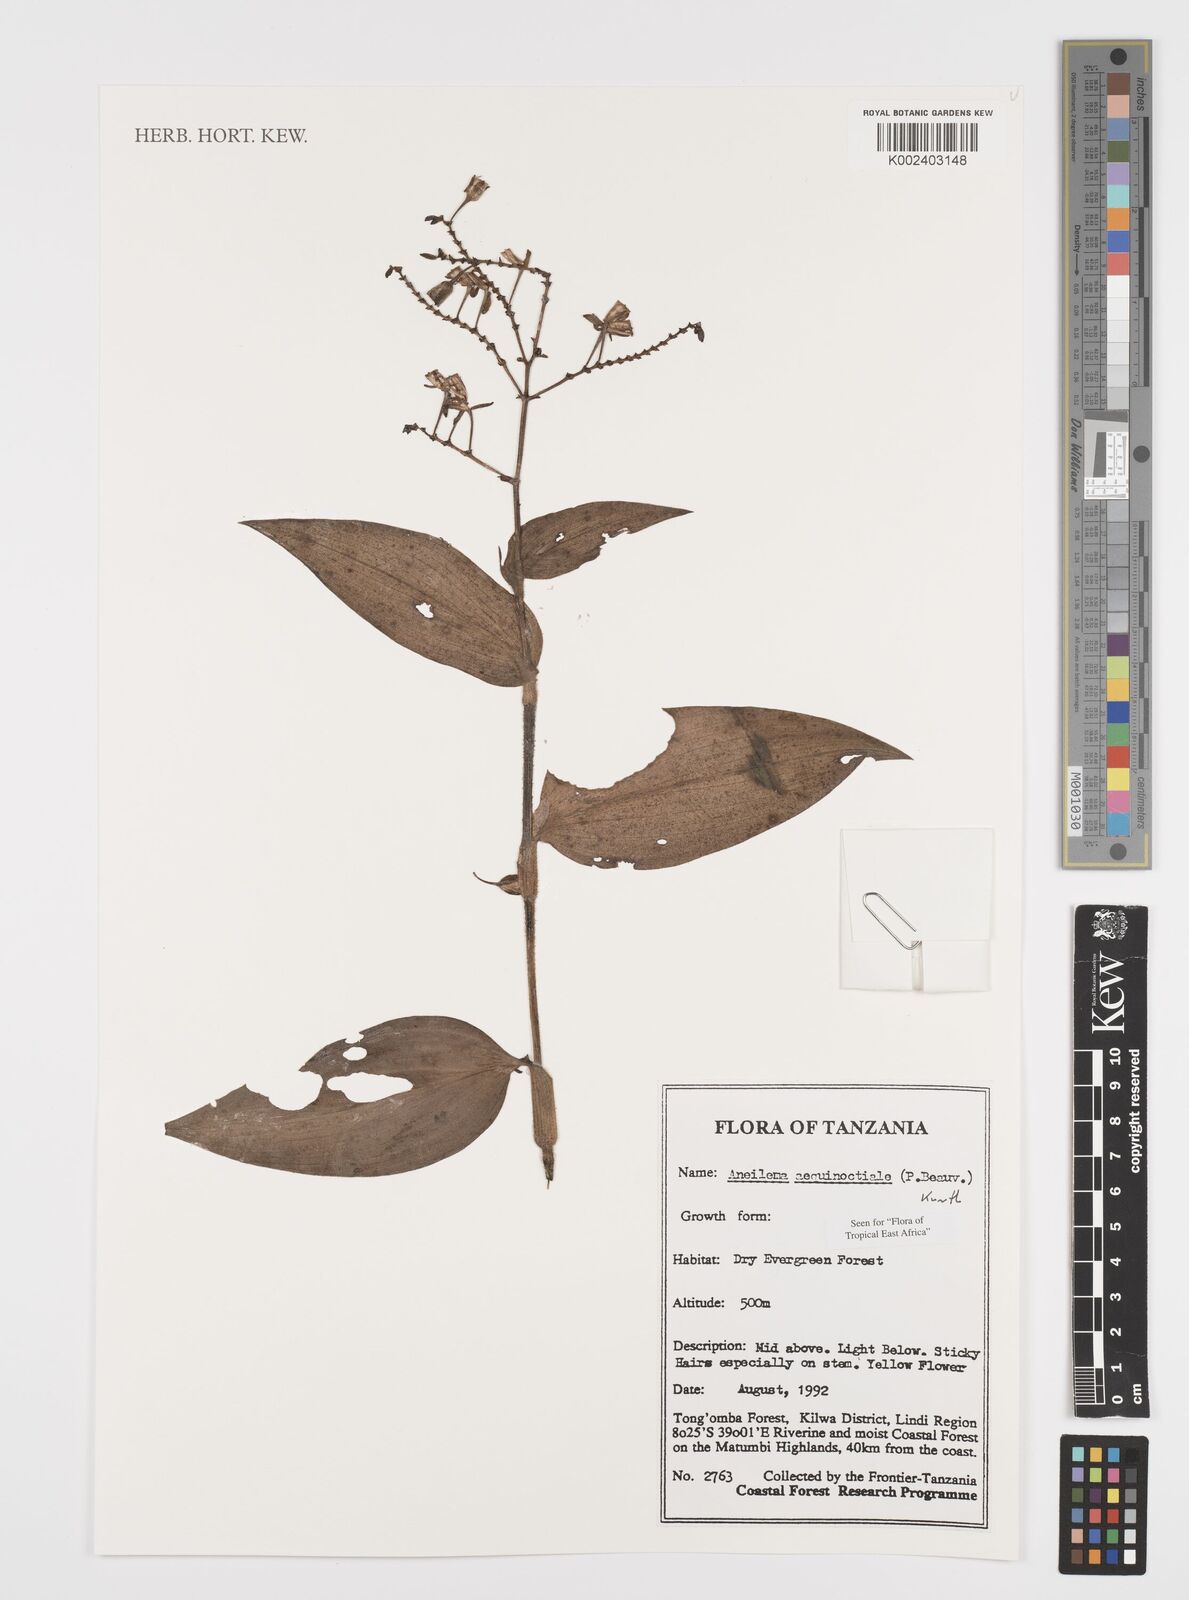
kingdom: Plantae
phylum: Tracheophyta
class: Liliopsida
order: Commelinales
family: Commelinaceae
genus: Aneilema
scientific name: Aneilema aequinoctiale
